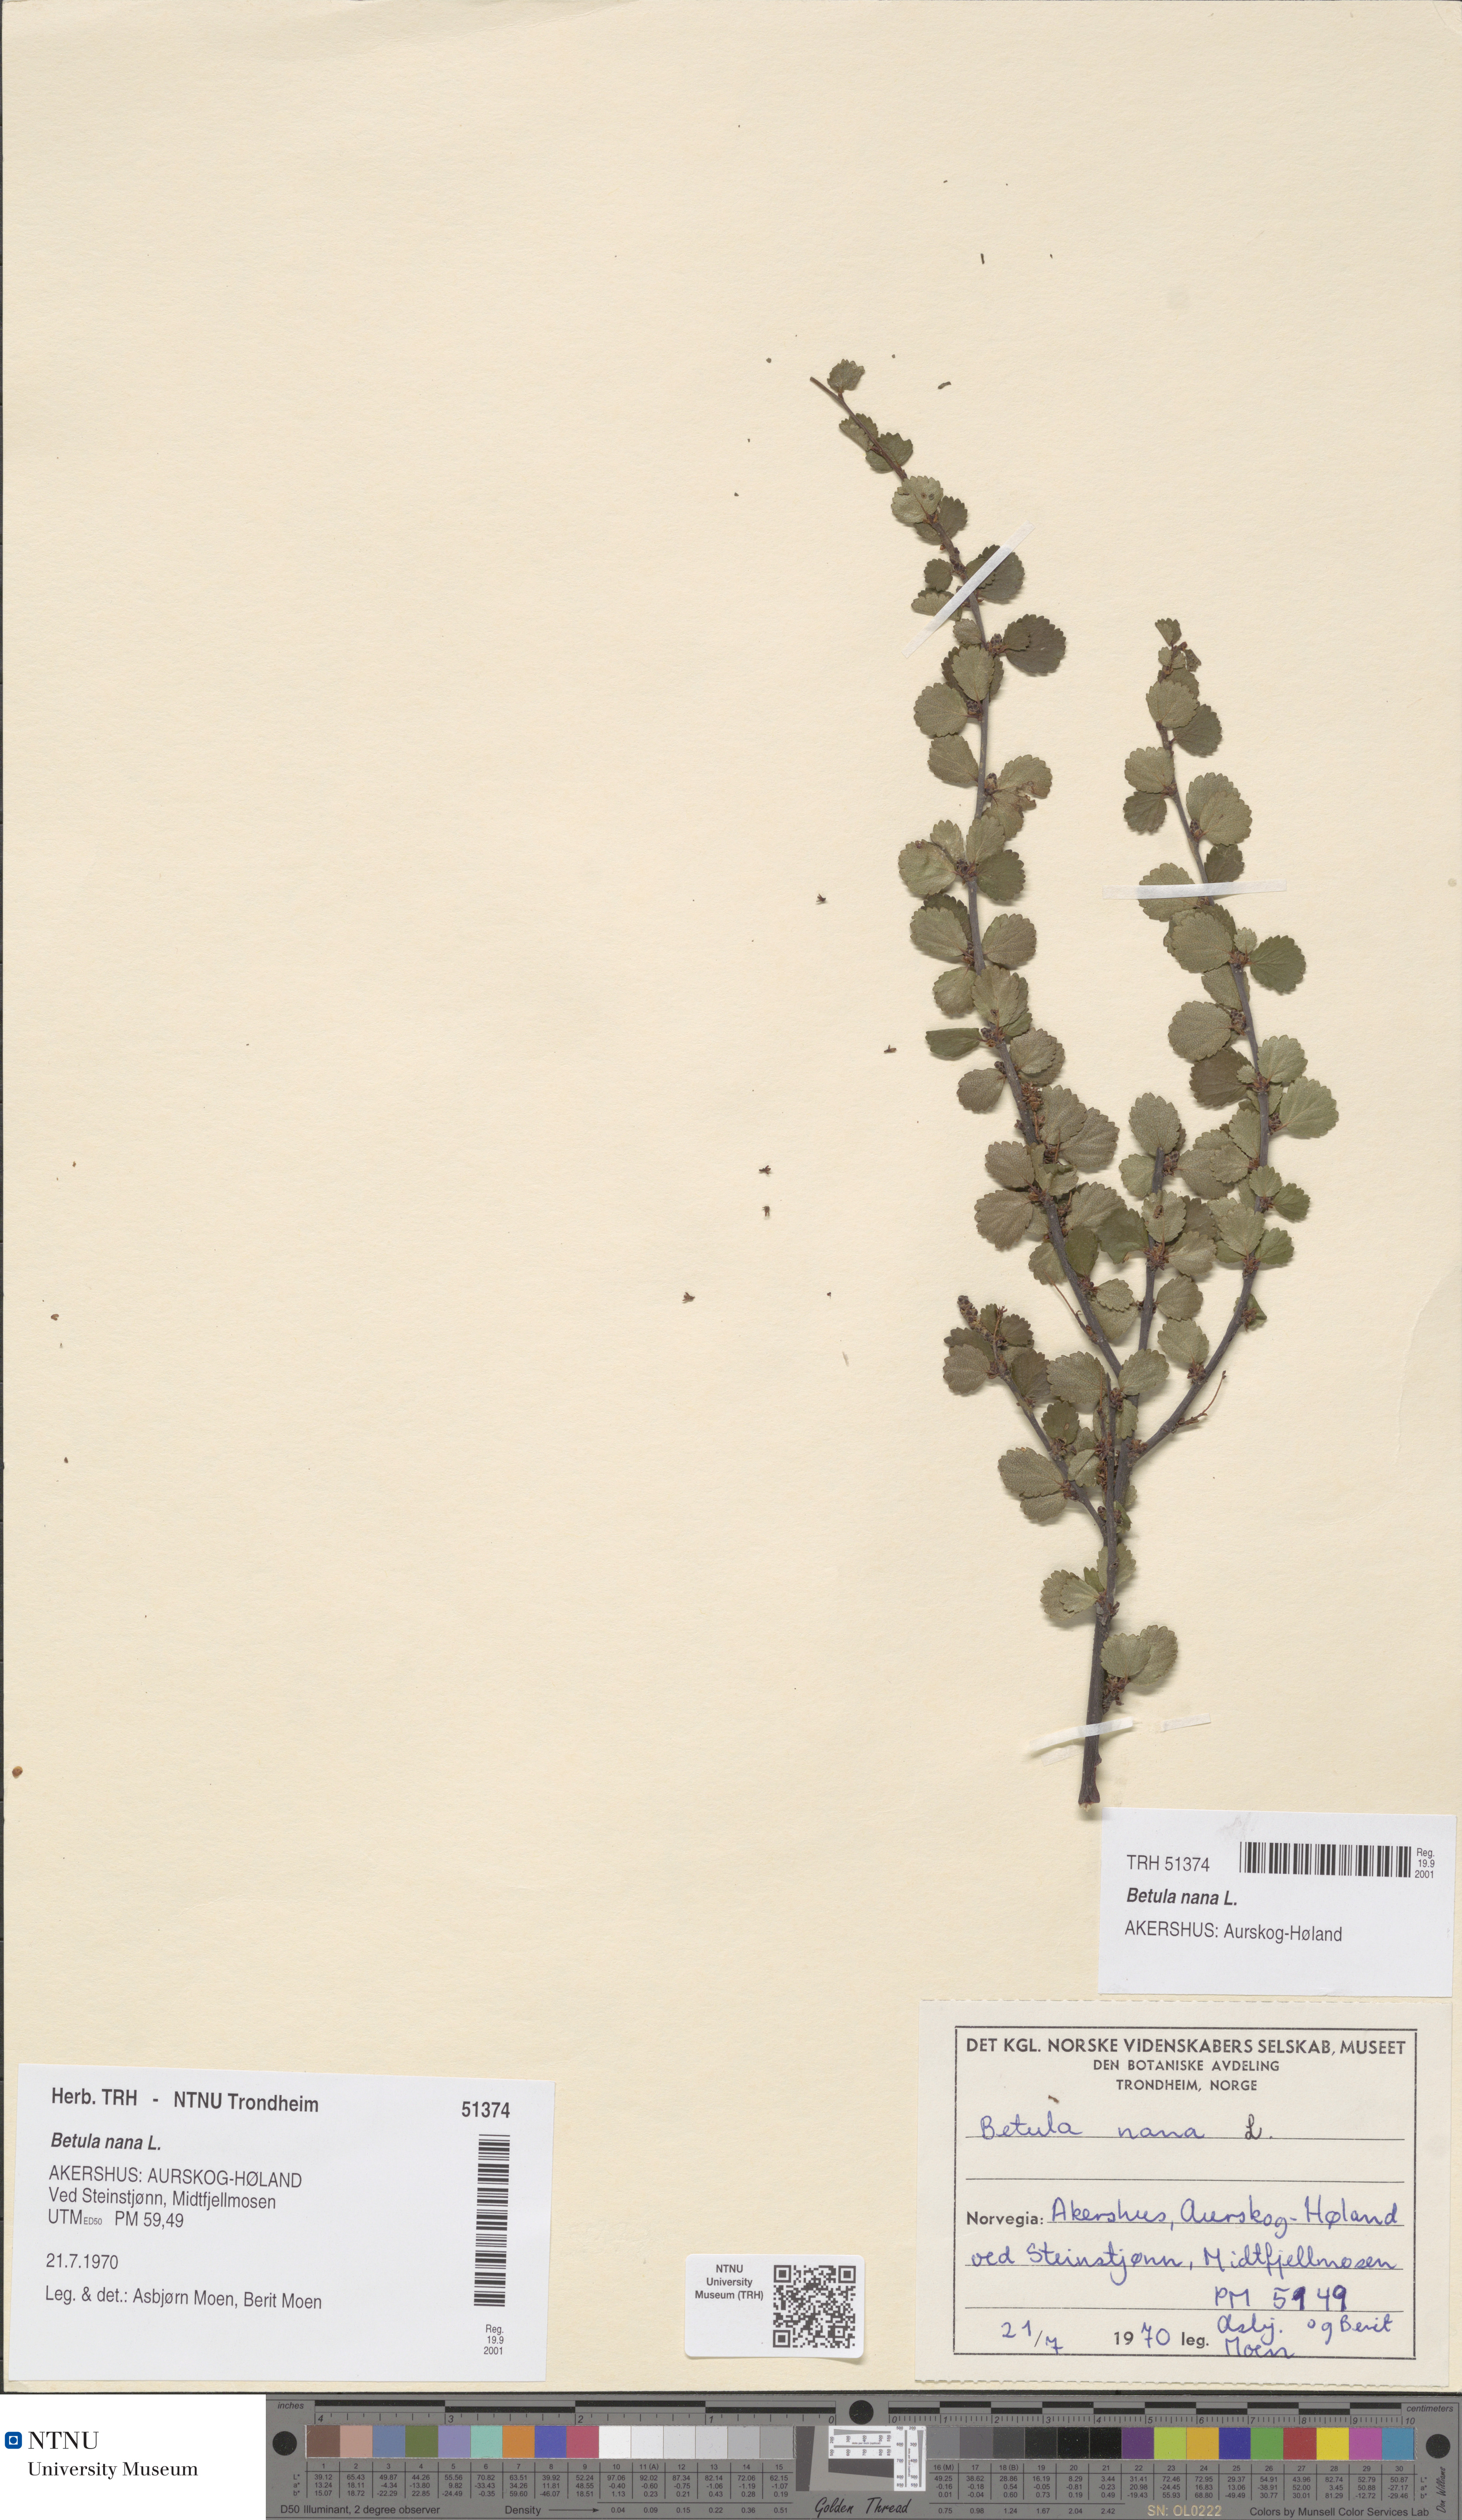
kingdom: Plantae
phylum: Tracheophyta
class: Magnoliopsida
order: Fagales
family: Betulaceae
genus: Betula
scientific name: Betula nana
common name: Arctic dwarf birch
